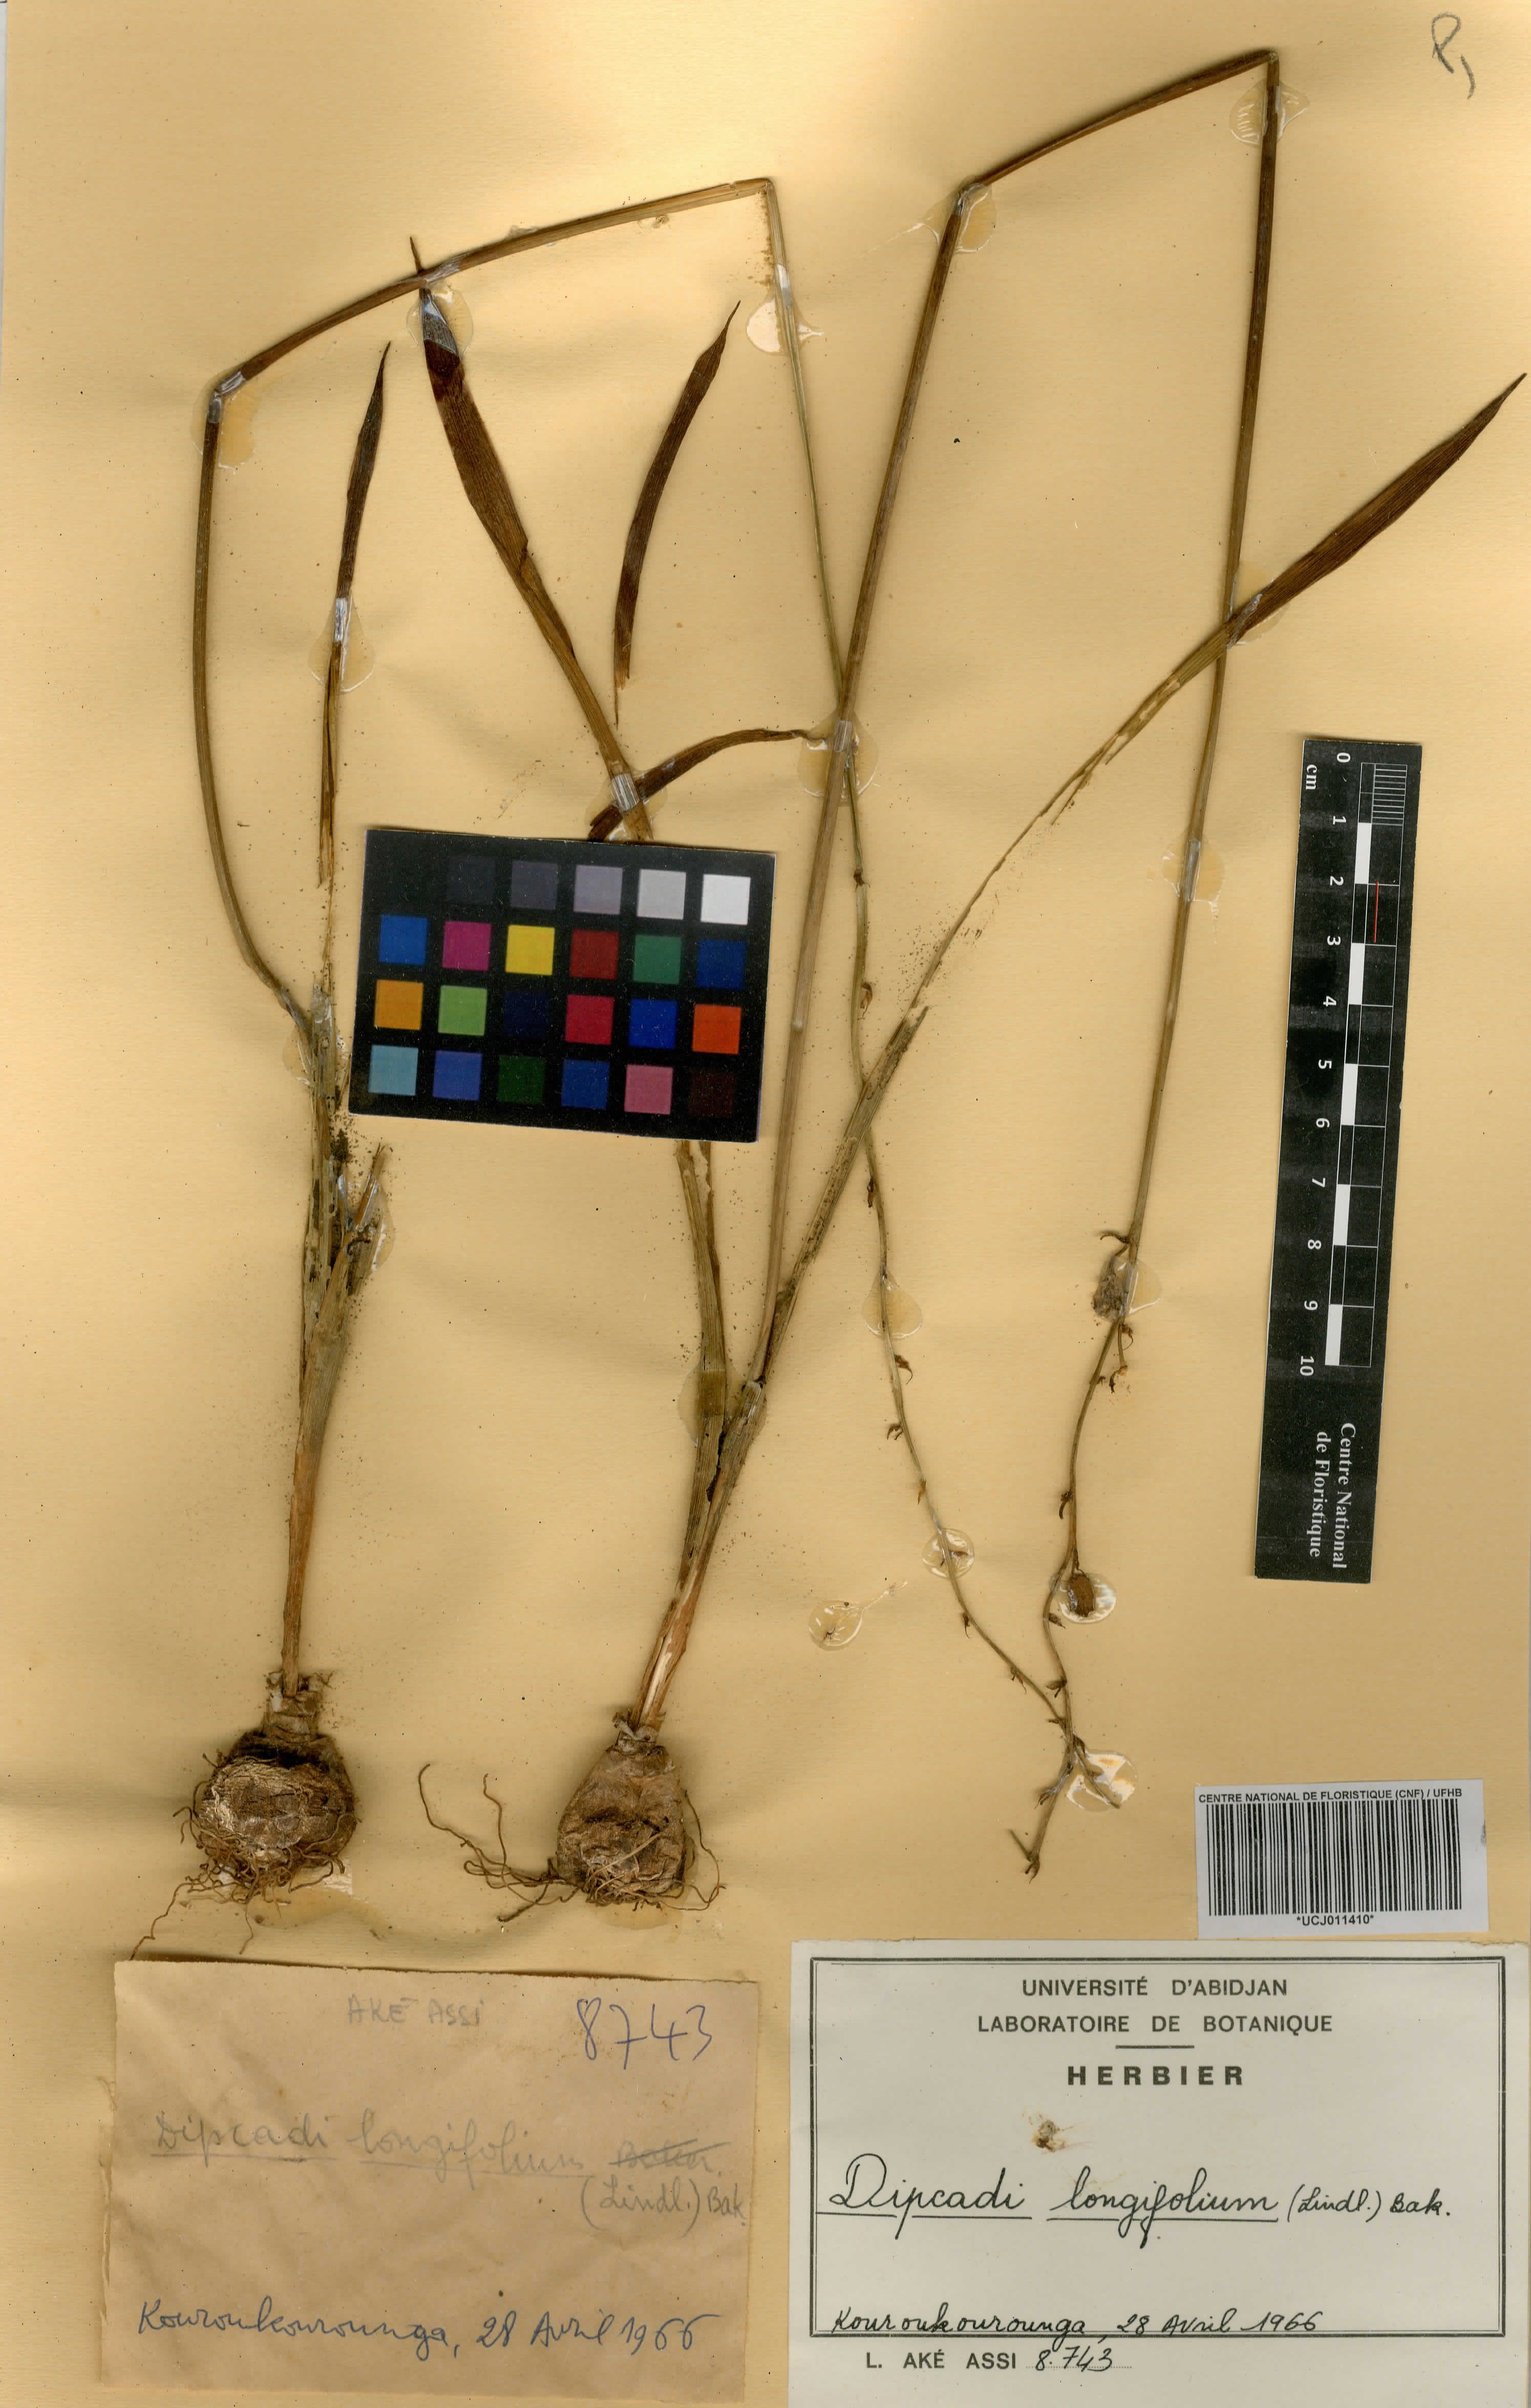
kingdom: Plantae
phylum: Tracheophyta
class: Liliopsida
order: Asparagales
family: Asparagaceae
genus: Dipcadi
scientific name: Dipcadi longifolium
